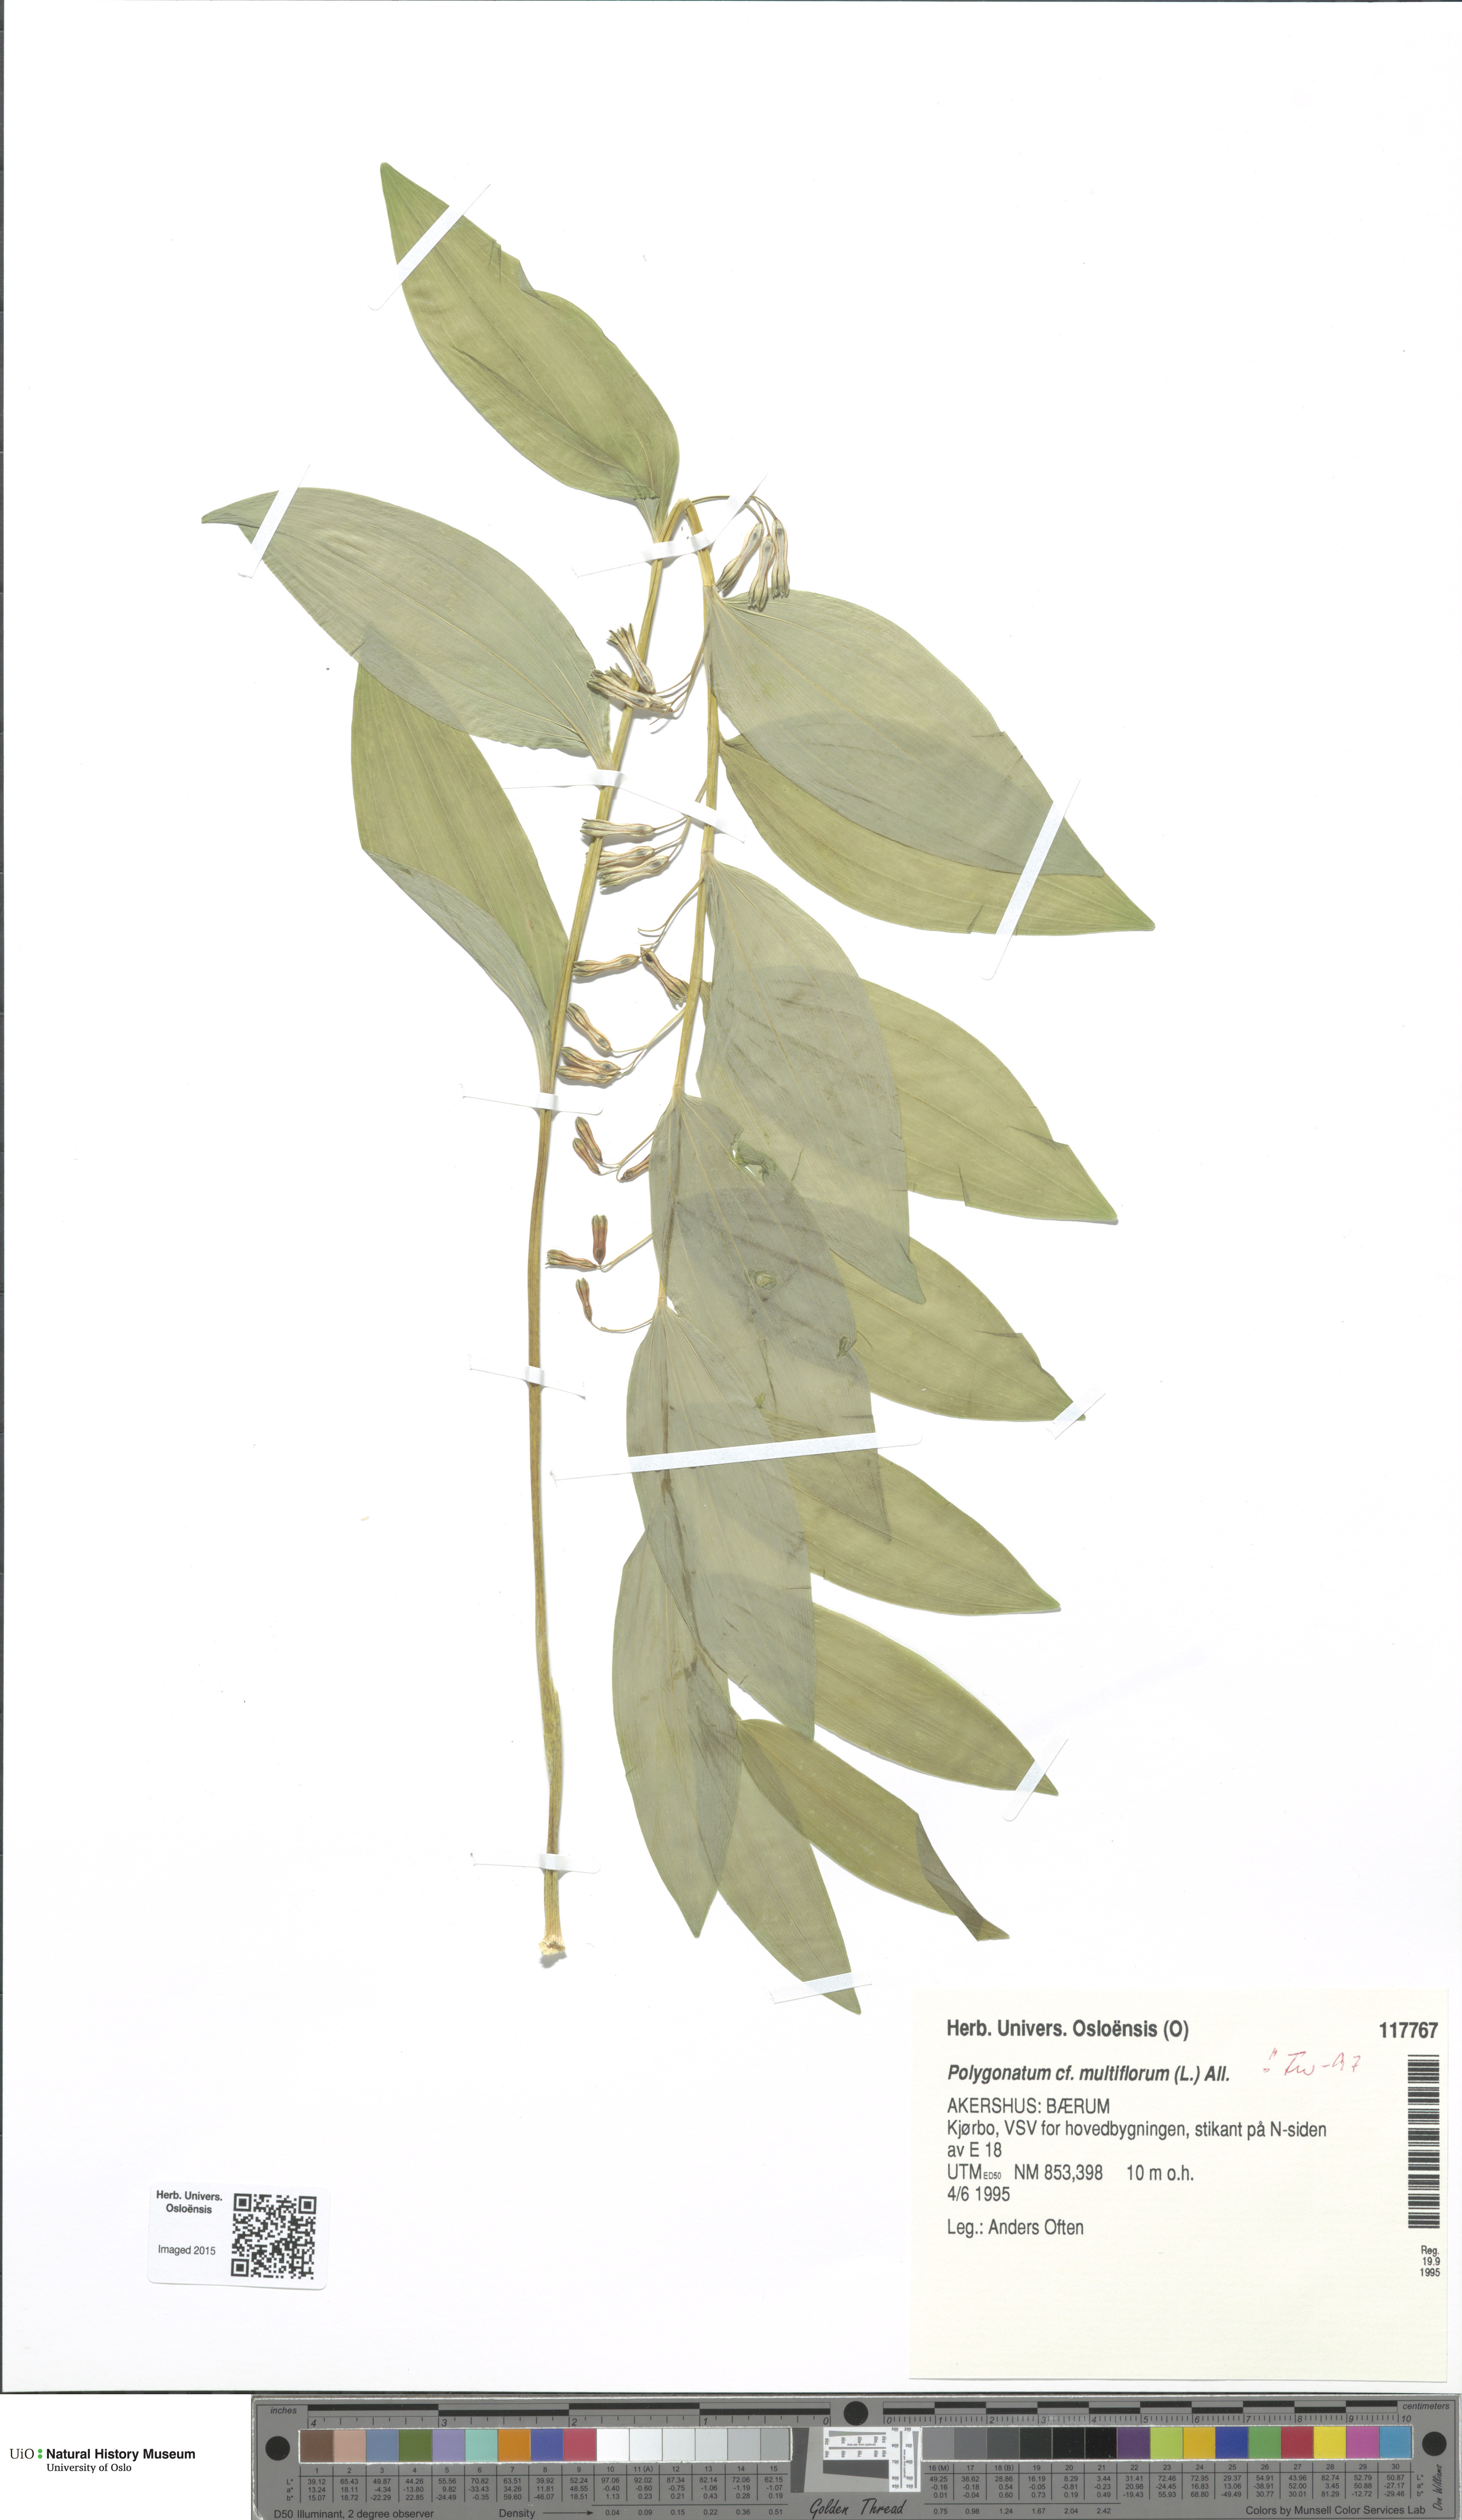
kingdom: Plantae
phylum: Tracheophyta
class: Liliopsida
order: Asparagales
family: Asparagaceae
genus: Polygonatum
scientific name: Polygonatum multiflorum
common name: Solomon's-seal
